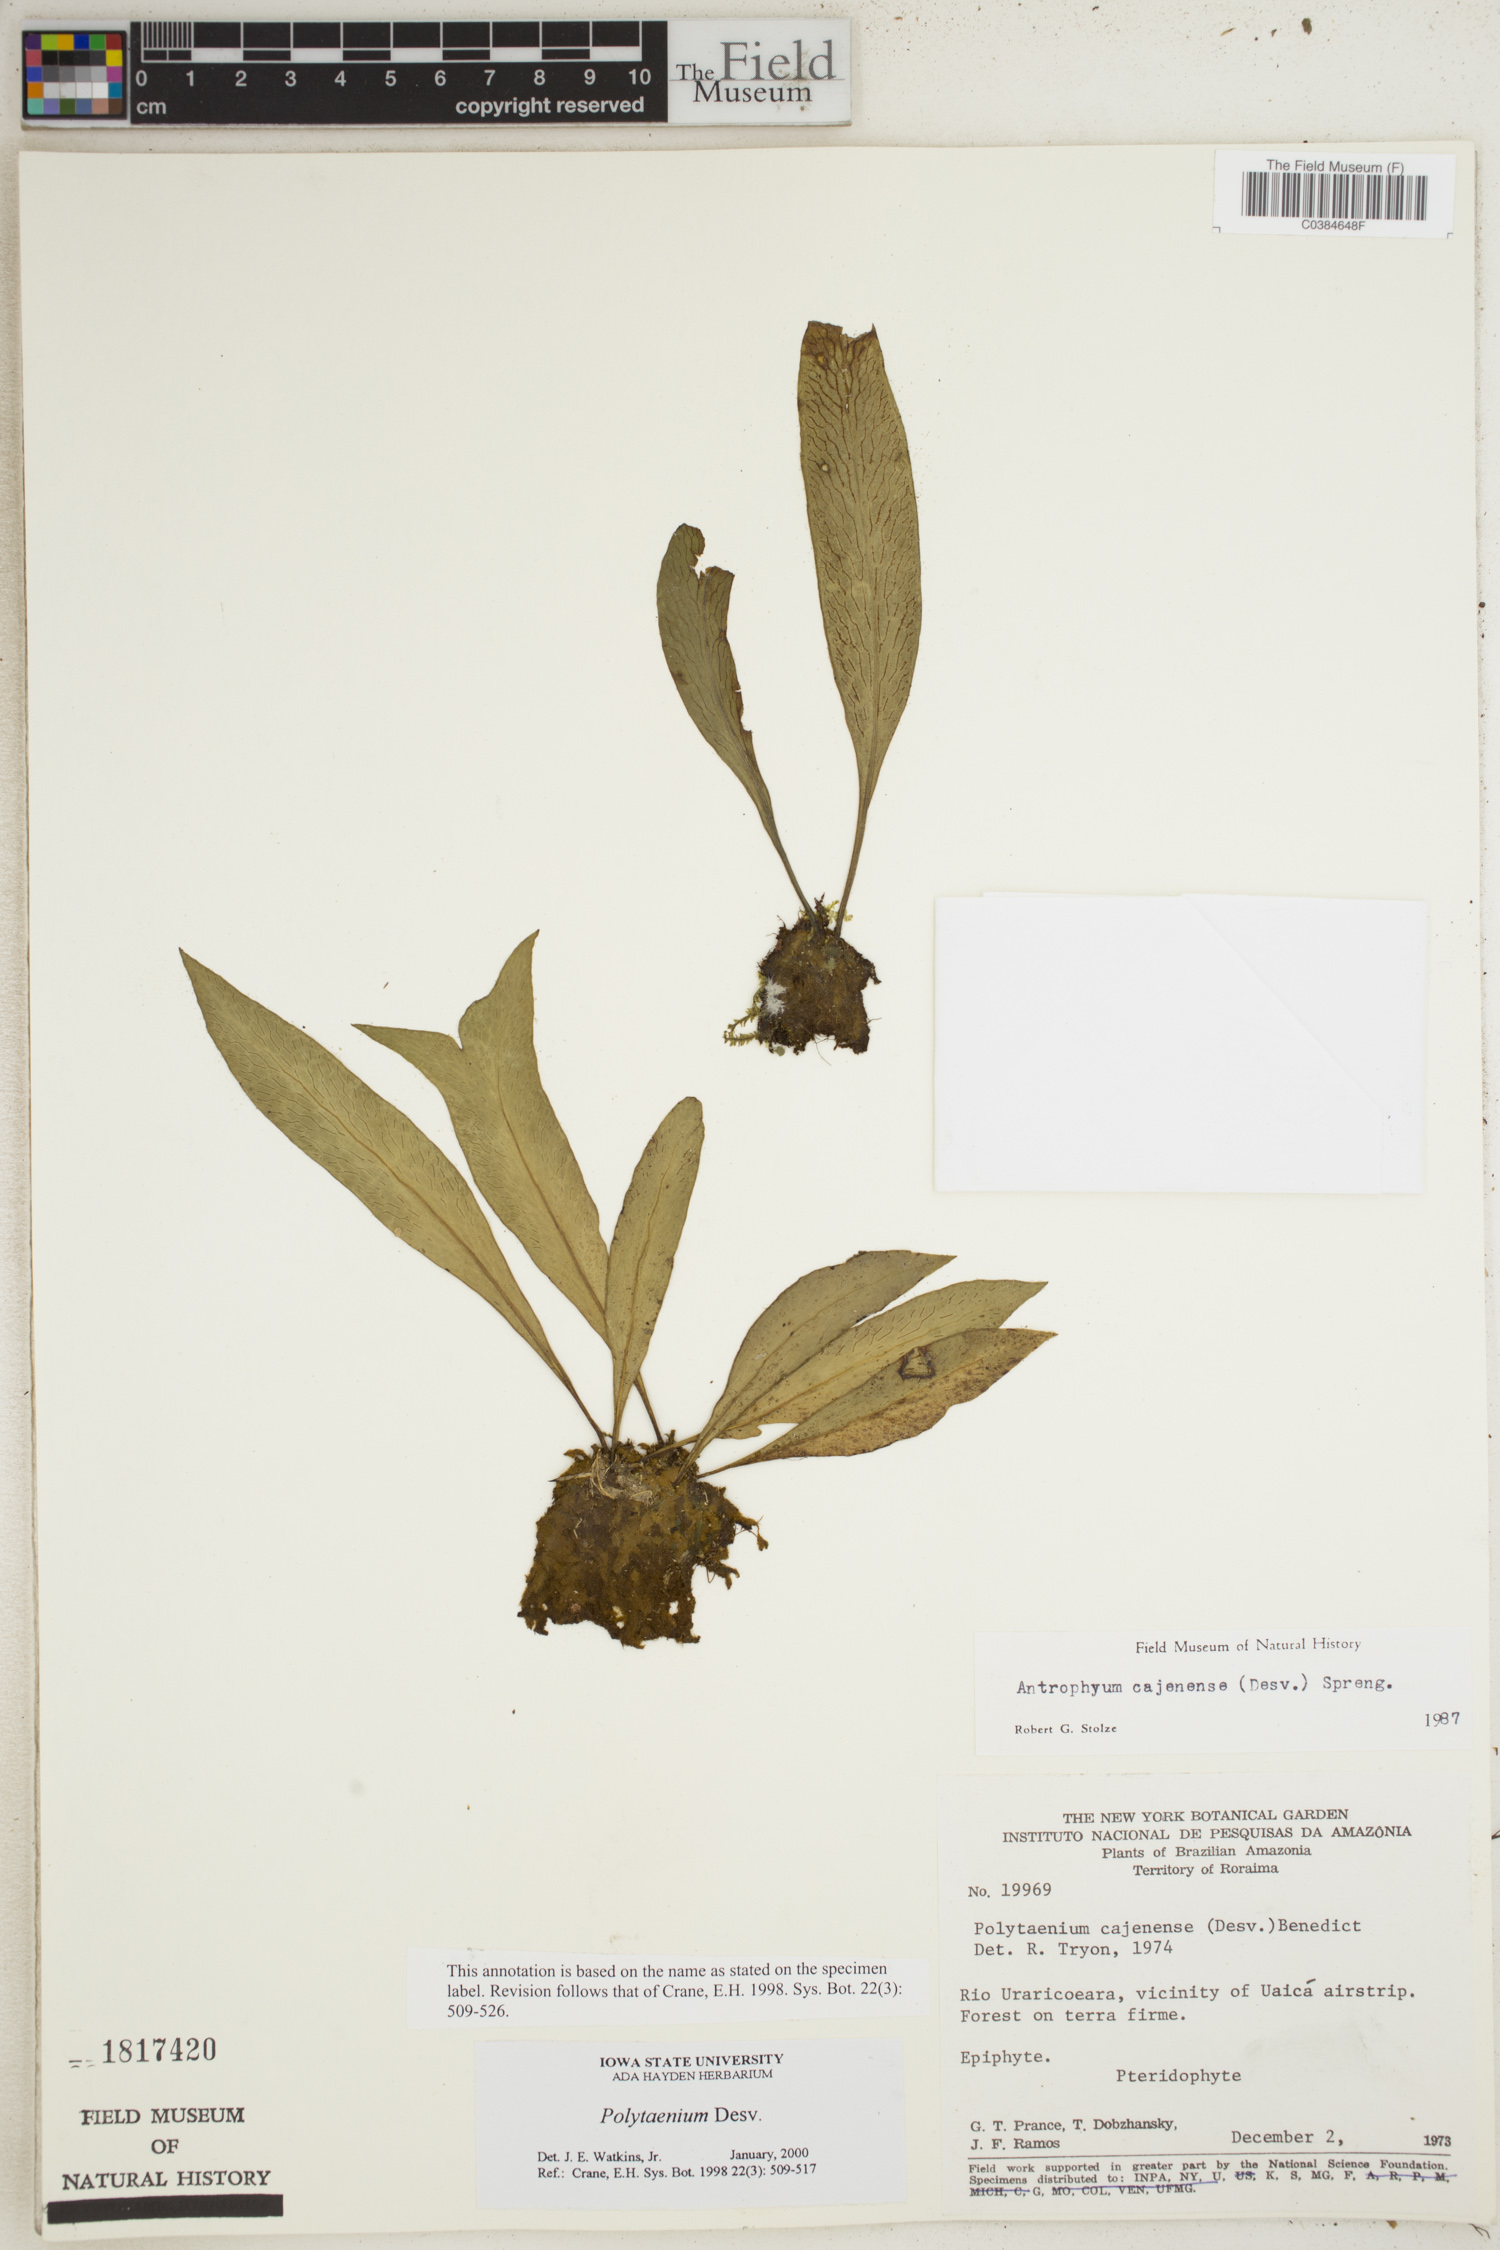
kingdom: Plantae
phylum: Tracheophyta
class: Polypodiopsida
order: Polypodiales
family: Pteridaceae
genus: Polytaenium
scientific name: Polytaenium
